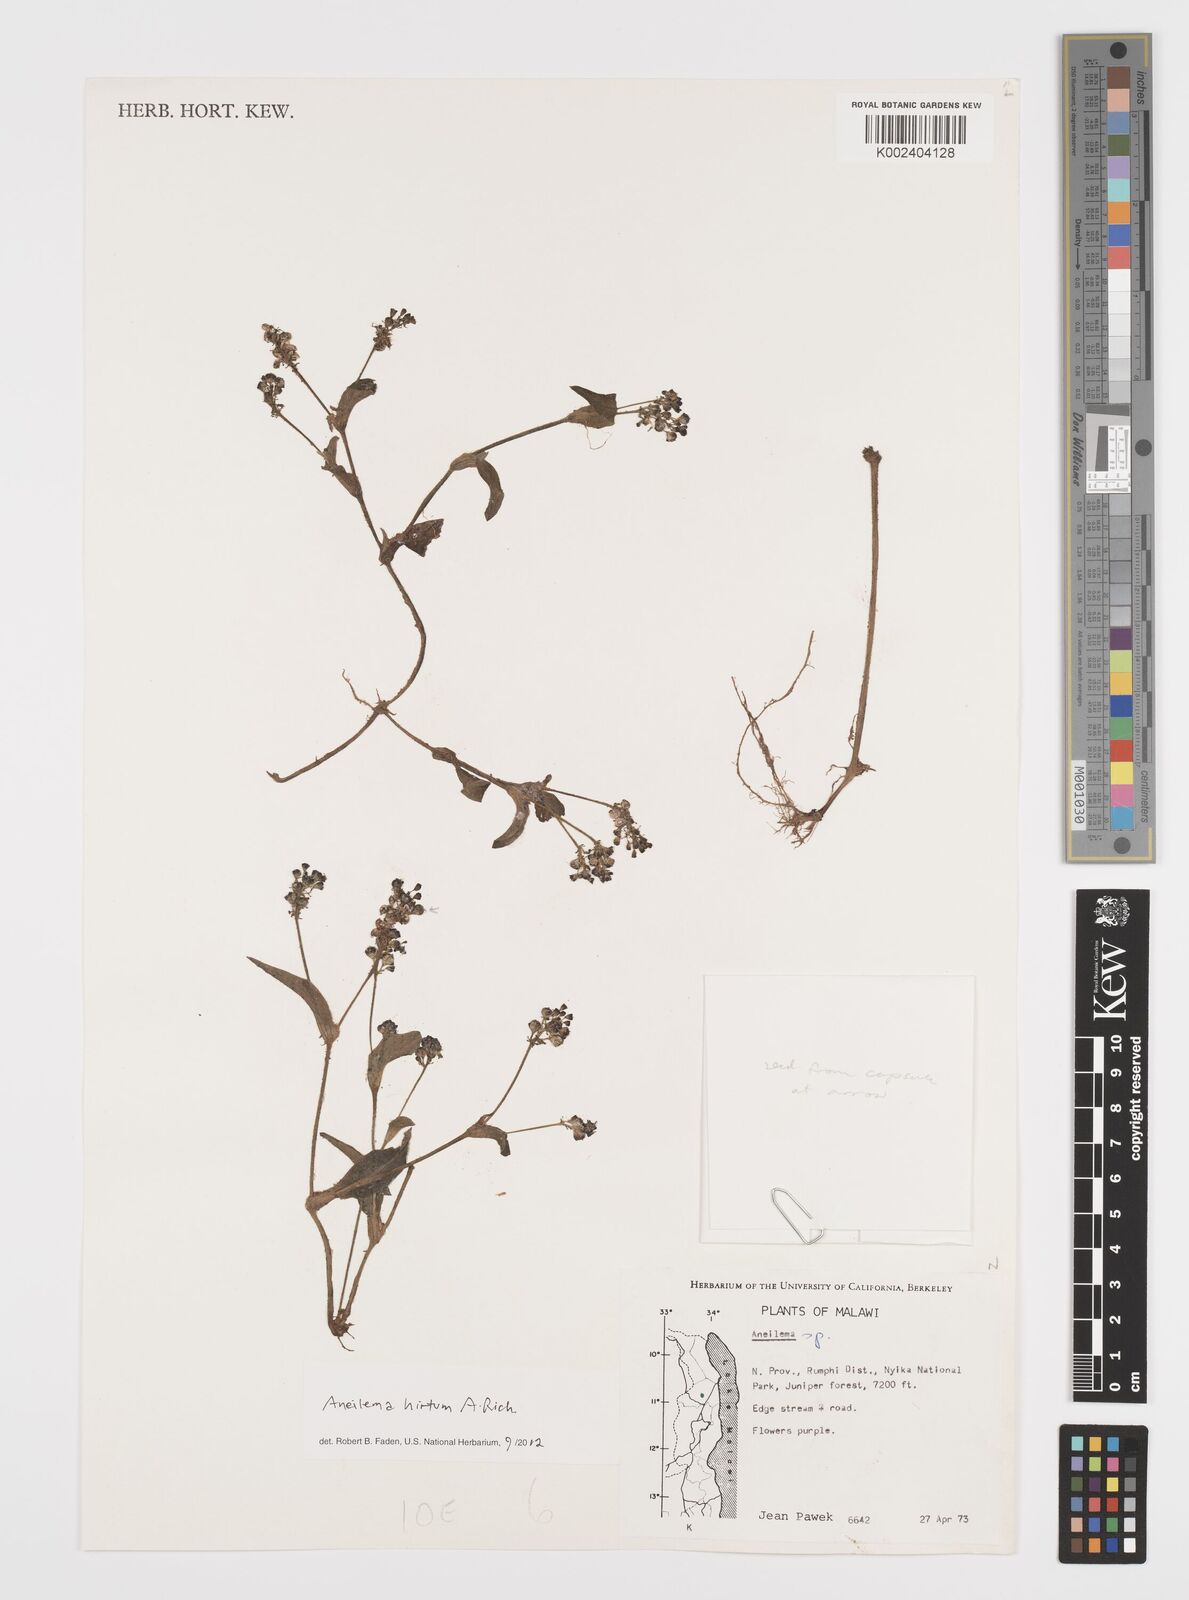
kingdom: Plantae
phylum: Tracheophyta
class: Liliopsida
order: Commelinales
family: Commelinaceae
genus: Aneilema
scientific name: Aneilema hirtum
